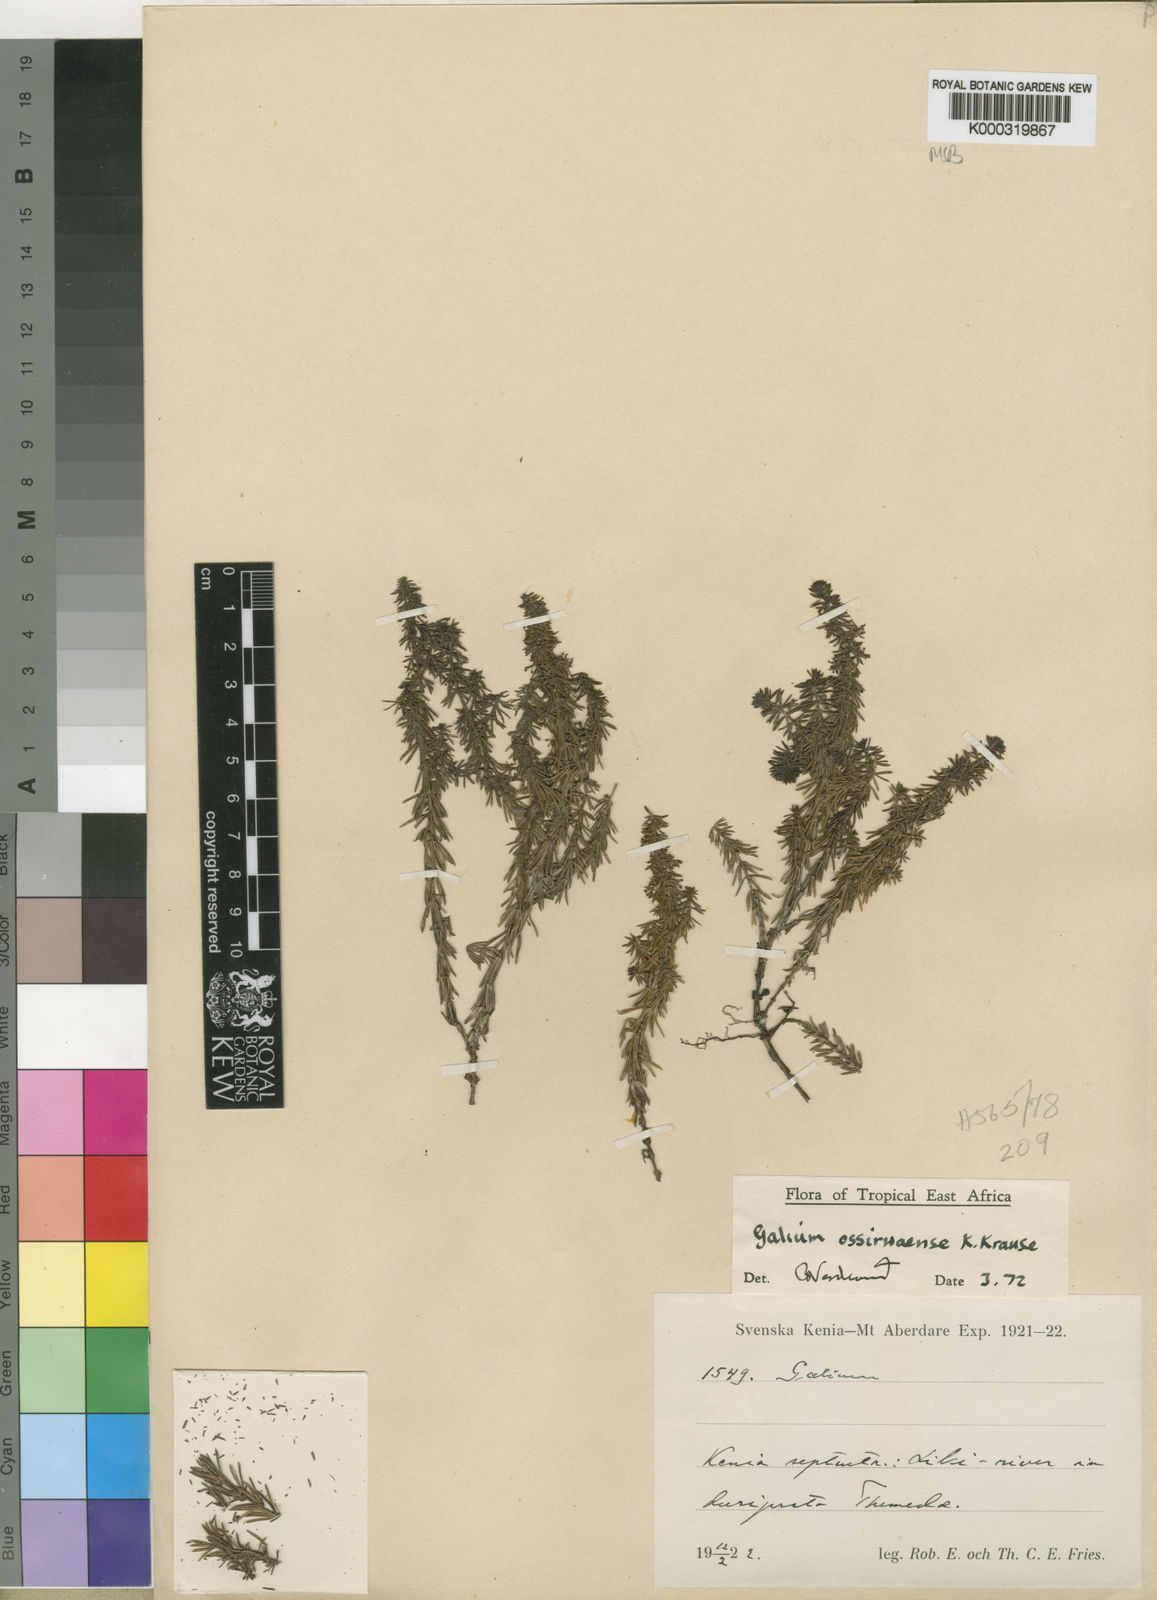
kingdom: Plantae
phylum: Tracheophyta
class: Magnoliopsida
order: Gentianales
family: Rubiaceae
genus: Galium
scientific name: Galium ossirwaense
